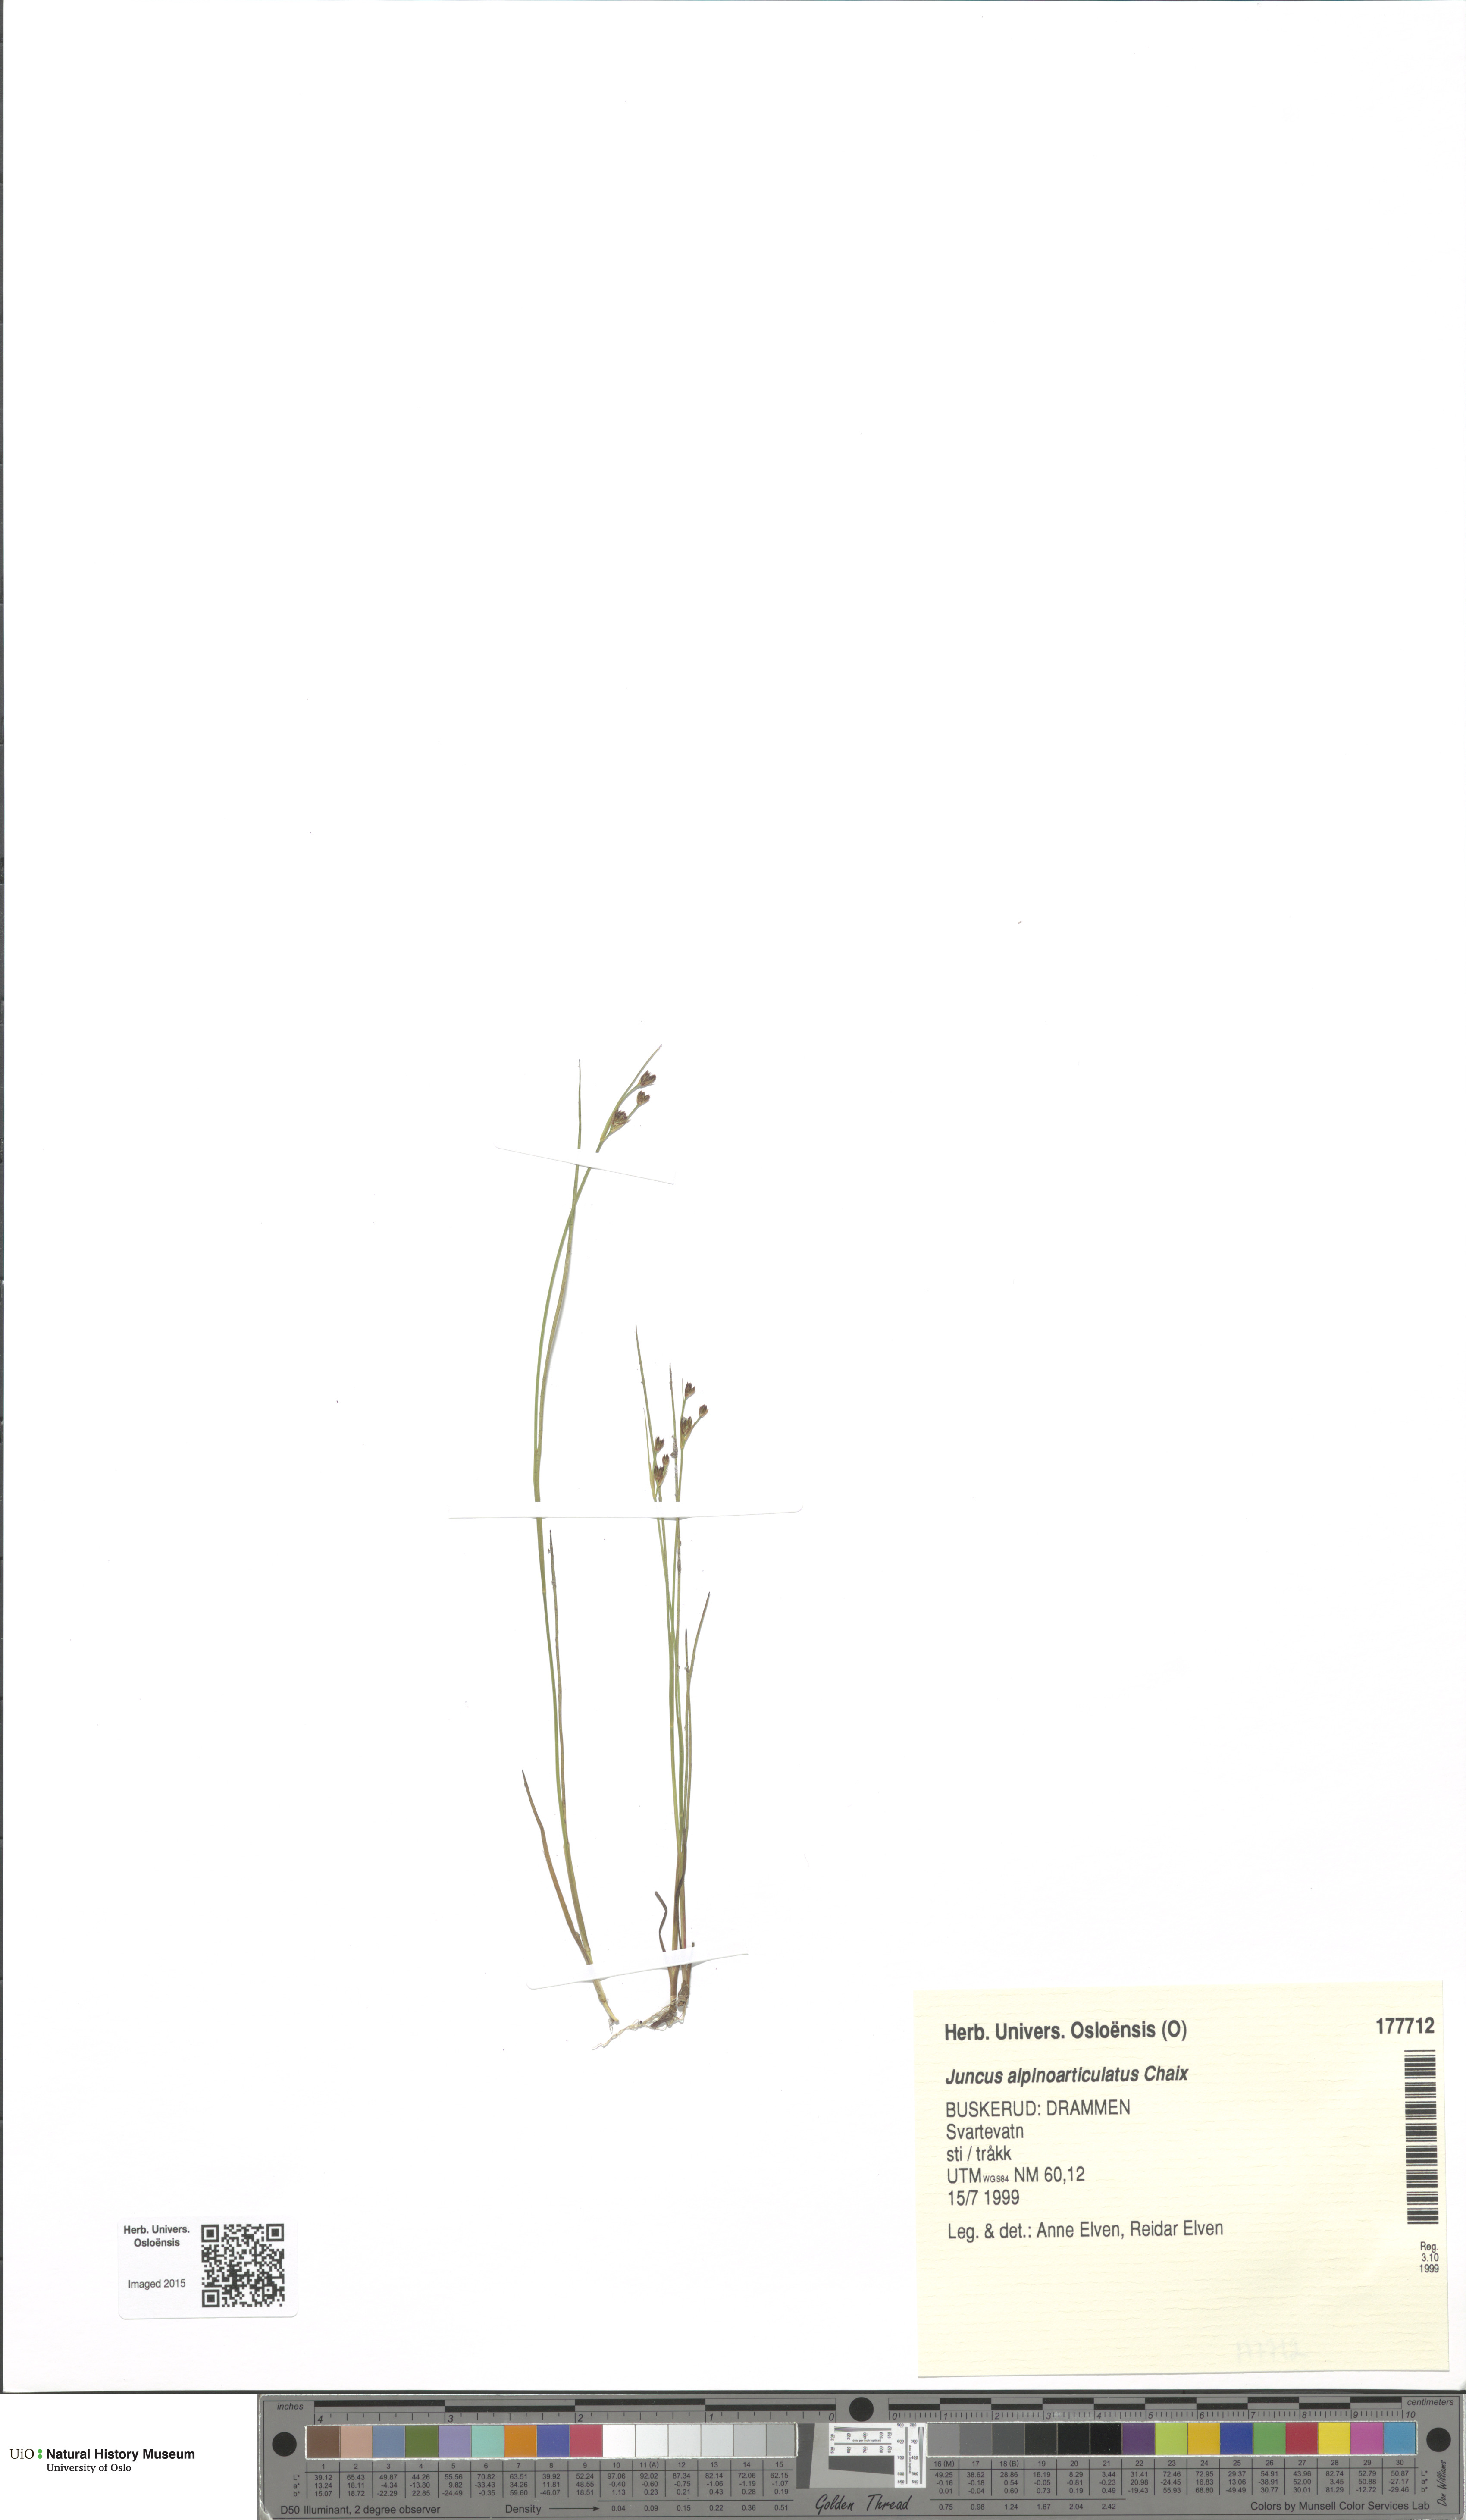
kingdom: Plantae
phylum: Tracheophyta
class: Liliopsida
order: Poales
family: Juncaceae
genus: Juncus
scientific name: Juncus alpinoarticulatus
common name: Alpine rush
